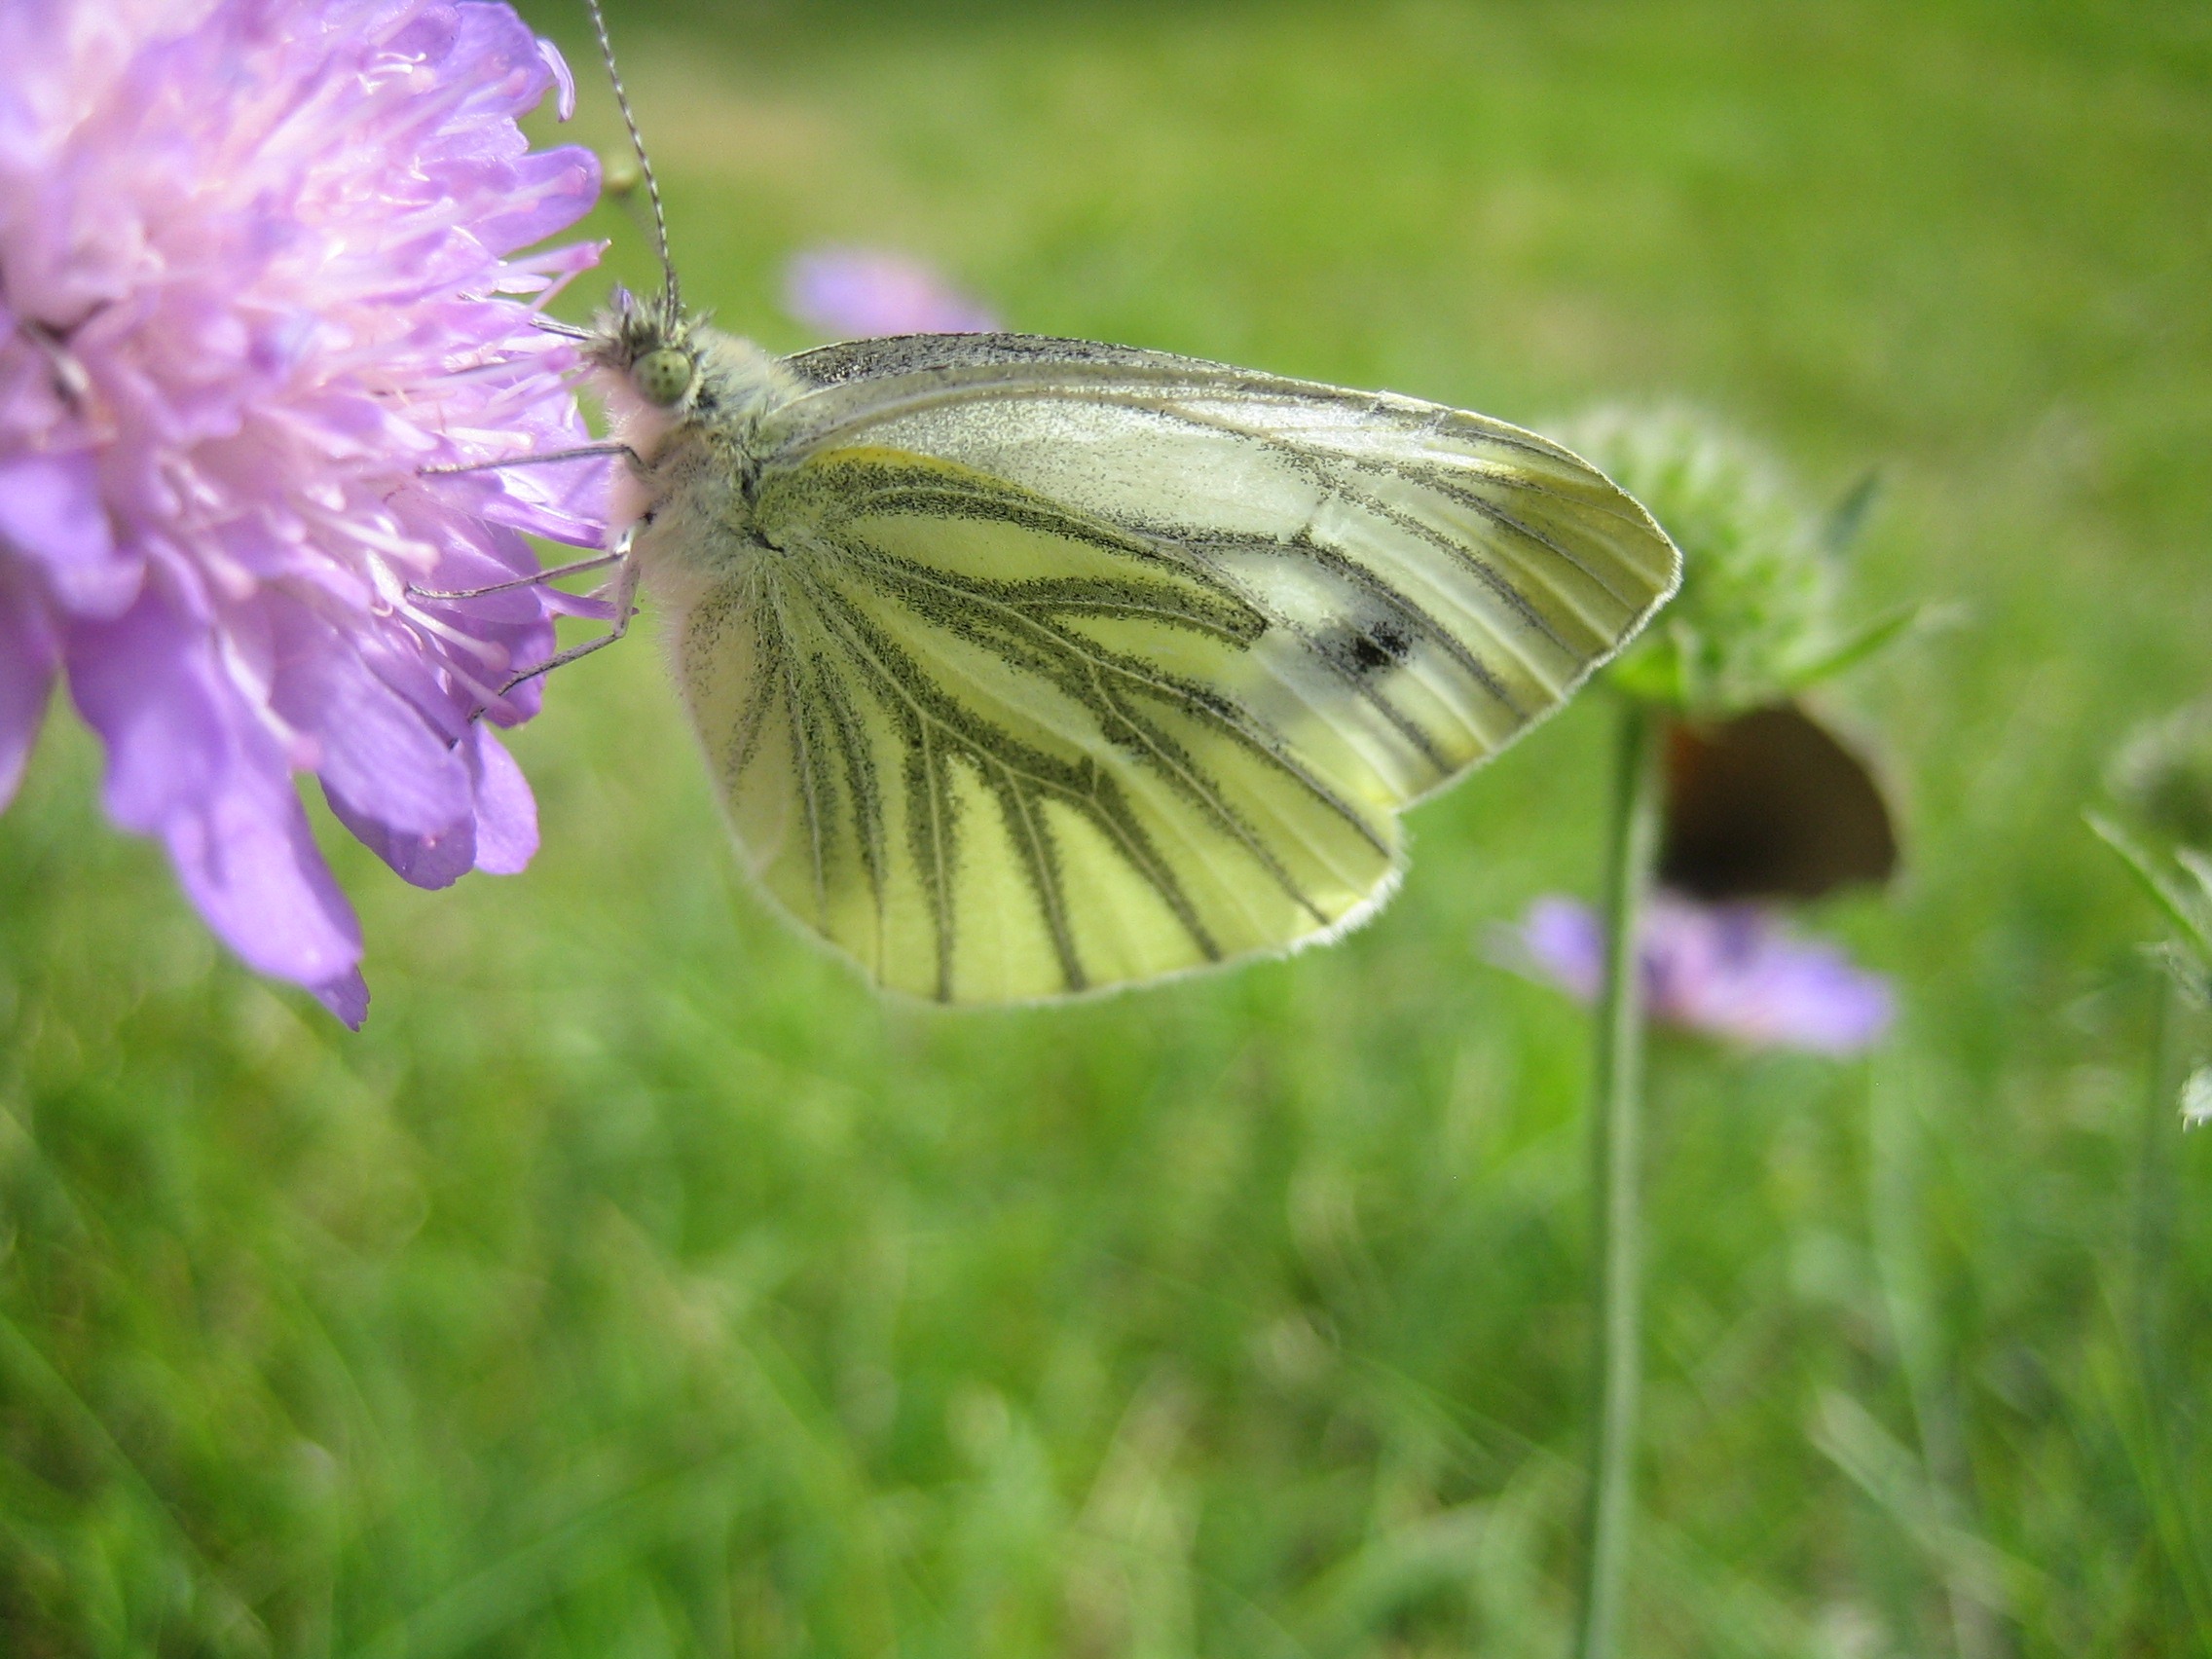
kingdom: Animalia
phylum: Arthropoda
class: Insecta
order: Lepidoptera
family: Pieridae
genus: Pieris
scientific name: Pieris napi
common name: Grønåret kålsommerfugl
